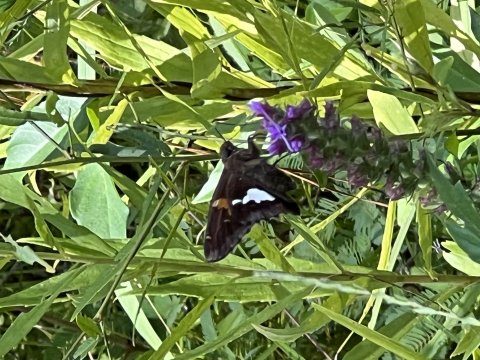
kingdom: Animalia
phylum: Arthropoda
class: Insecta
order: Lepidoptera
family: Hesperiidae
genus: Epargyreus
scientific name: Epargyreus clarus
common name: Silver-spotted Skipper
